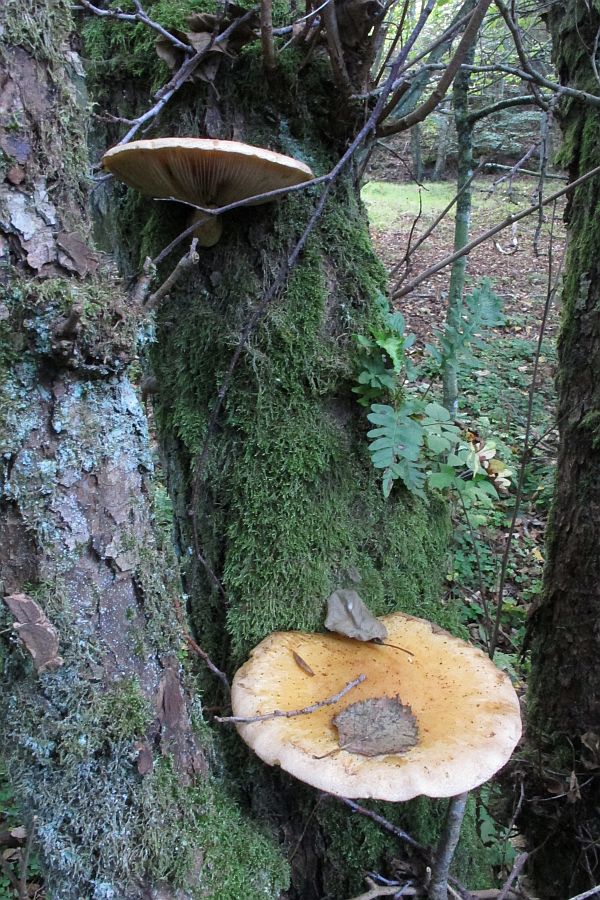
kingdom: Fungi
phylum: Basidiomycota
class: Agaricomycetes
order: Agaricales
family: Strophariaceae
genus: Pholiota
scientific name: Pholiota heteroclita
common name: duftende kæmpeskælhat
